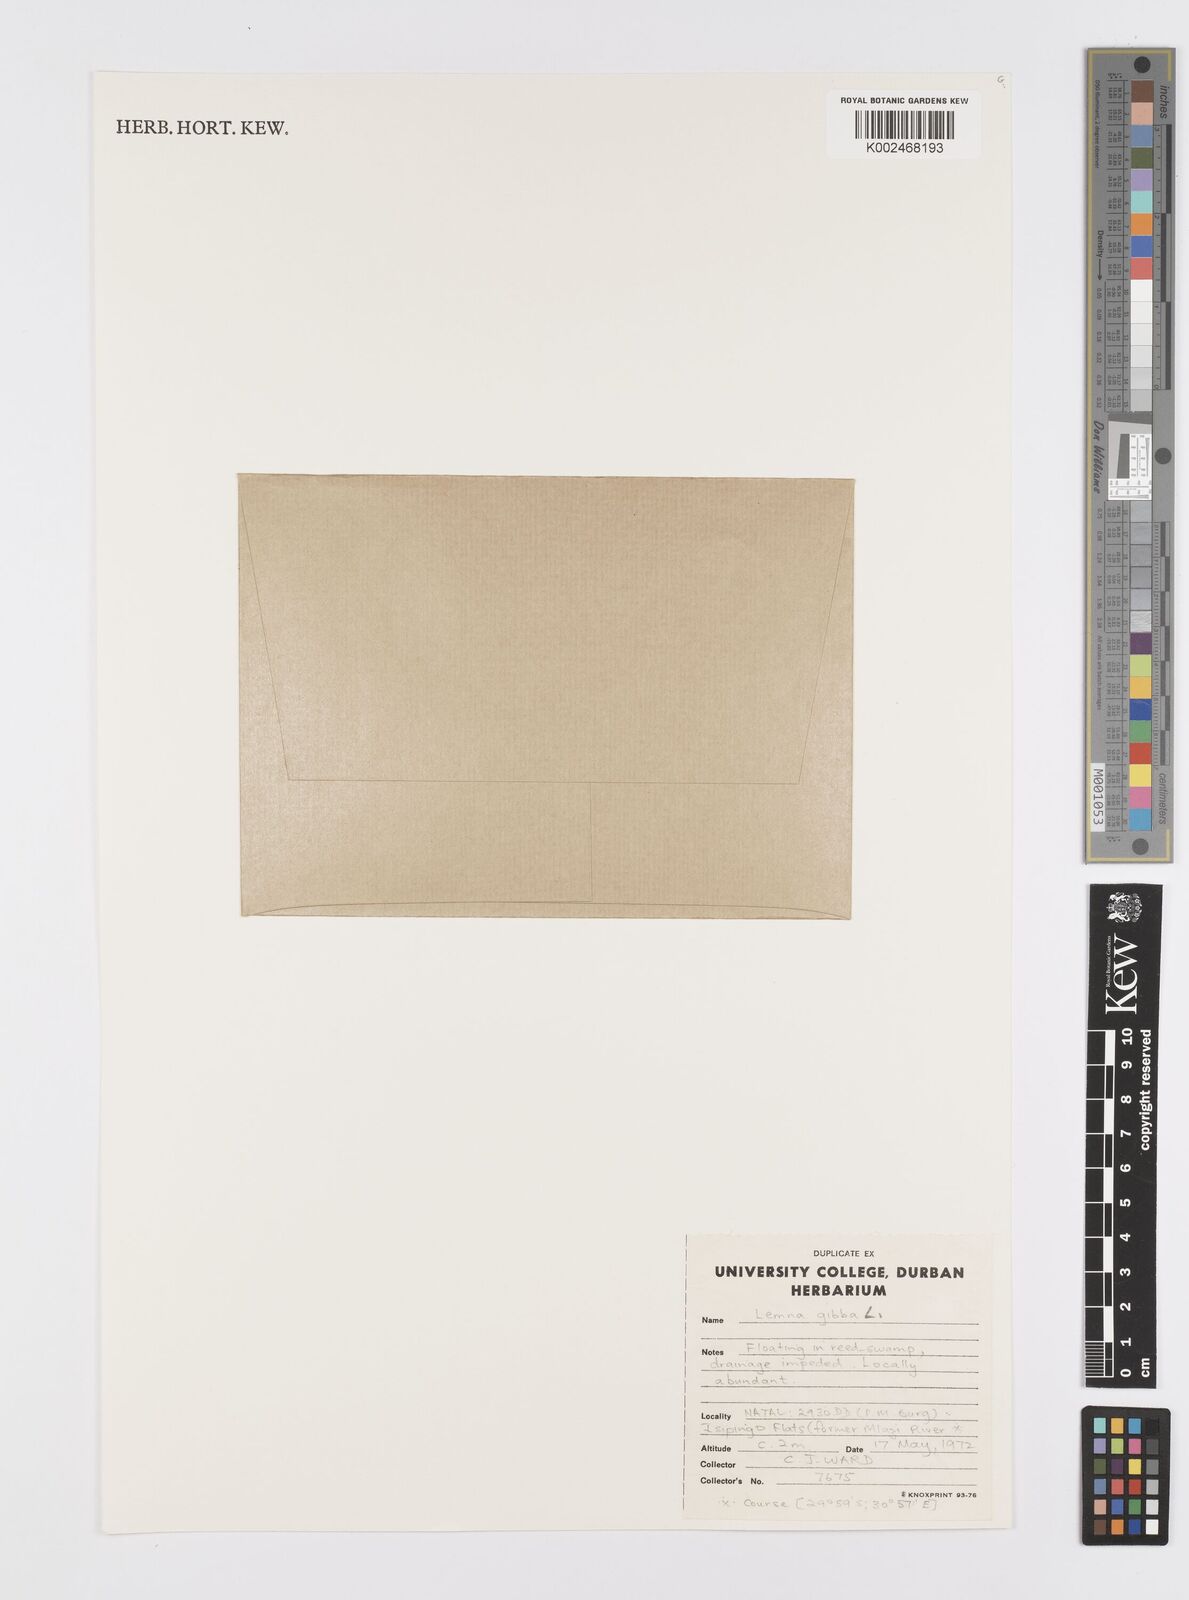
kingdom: Plantae
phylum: Tracheophyta
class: Liliopsida
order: Alismatales
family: Araceae
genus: Lemna
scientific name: Lemna gibba
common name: Fat duckweed
